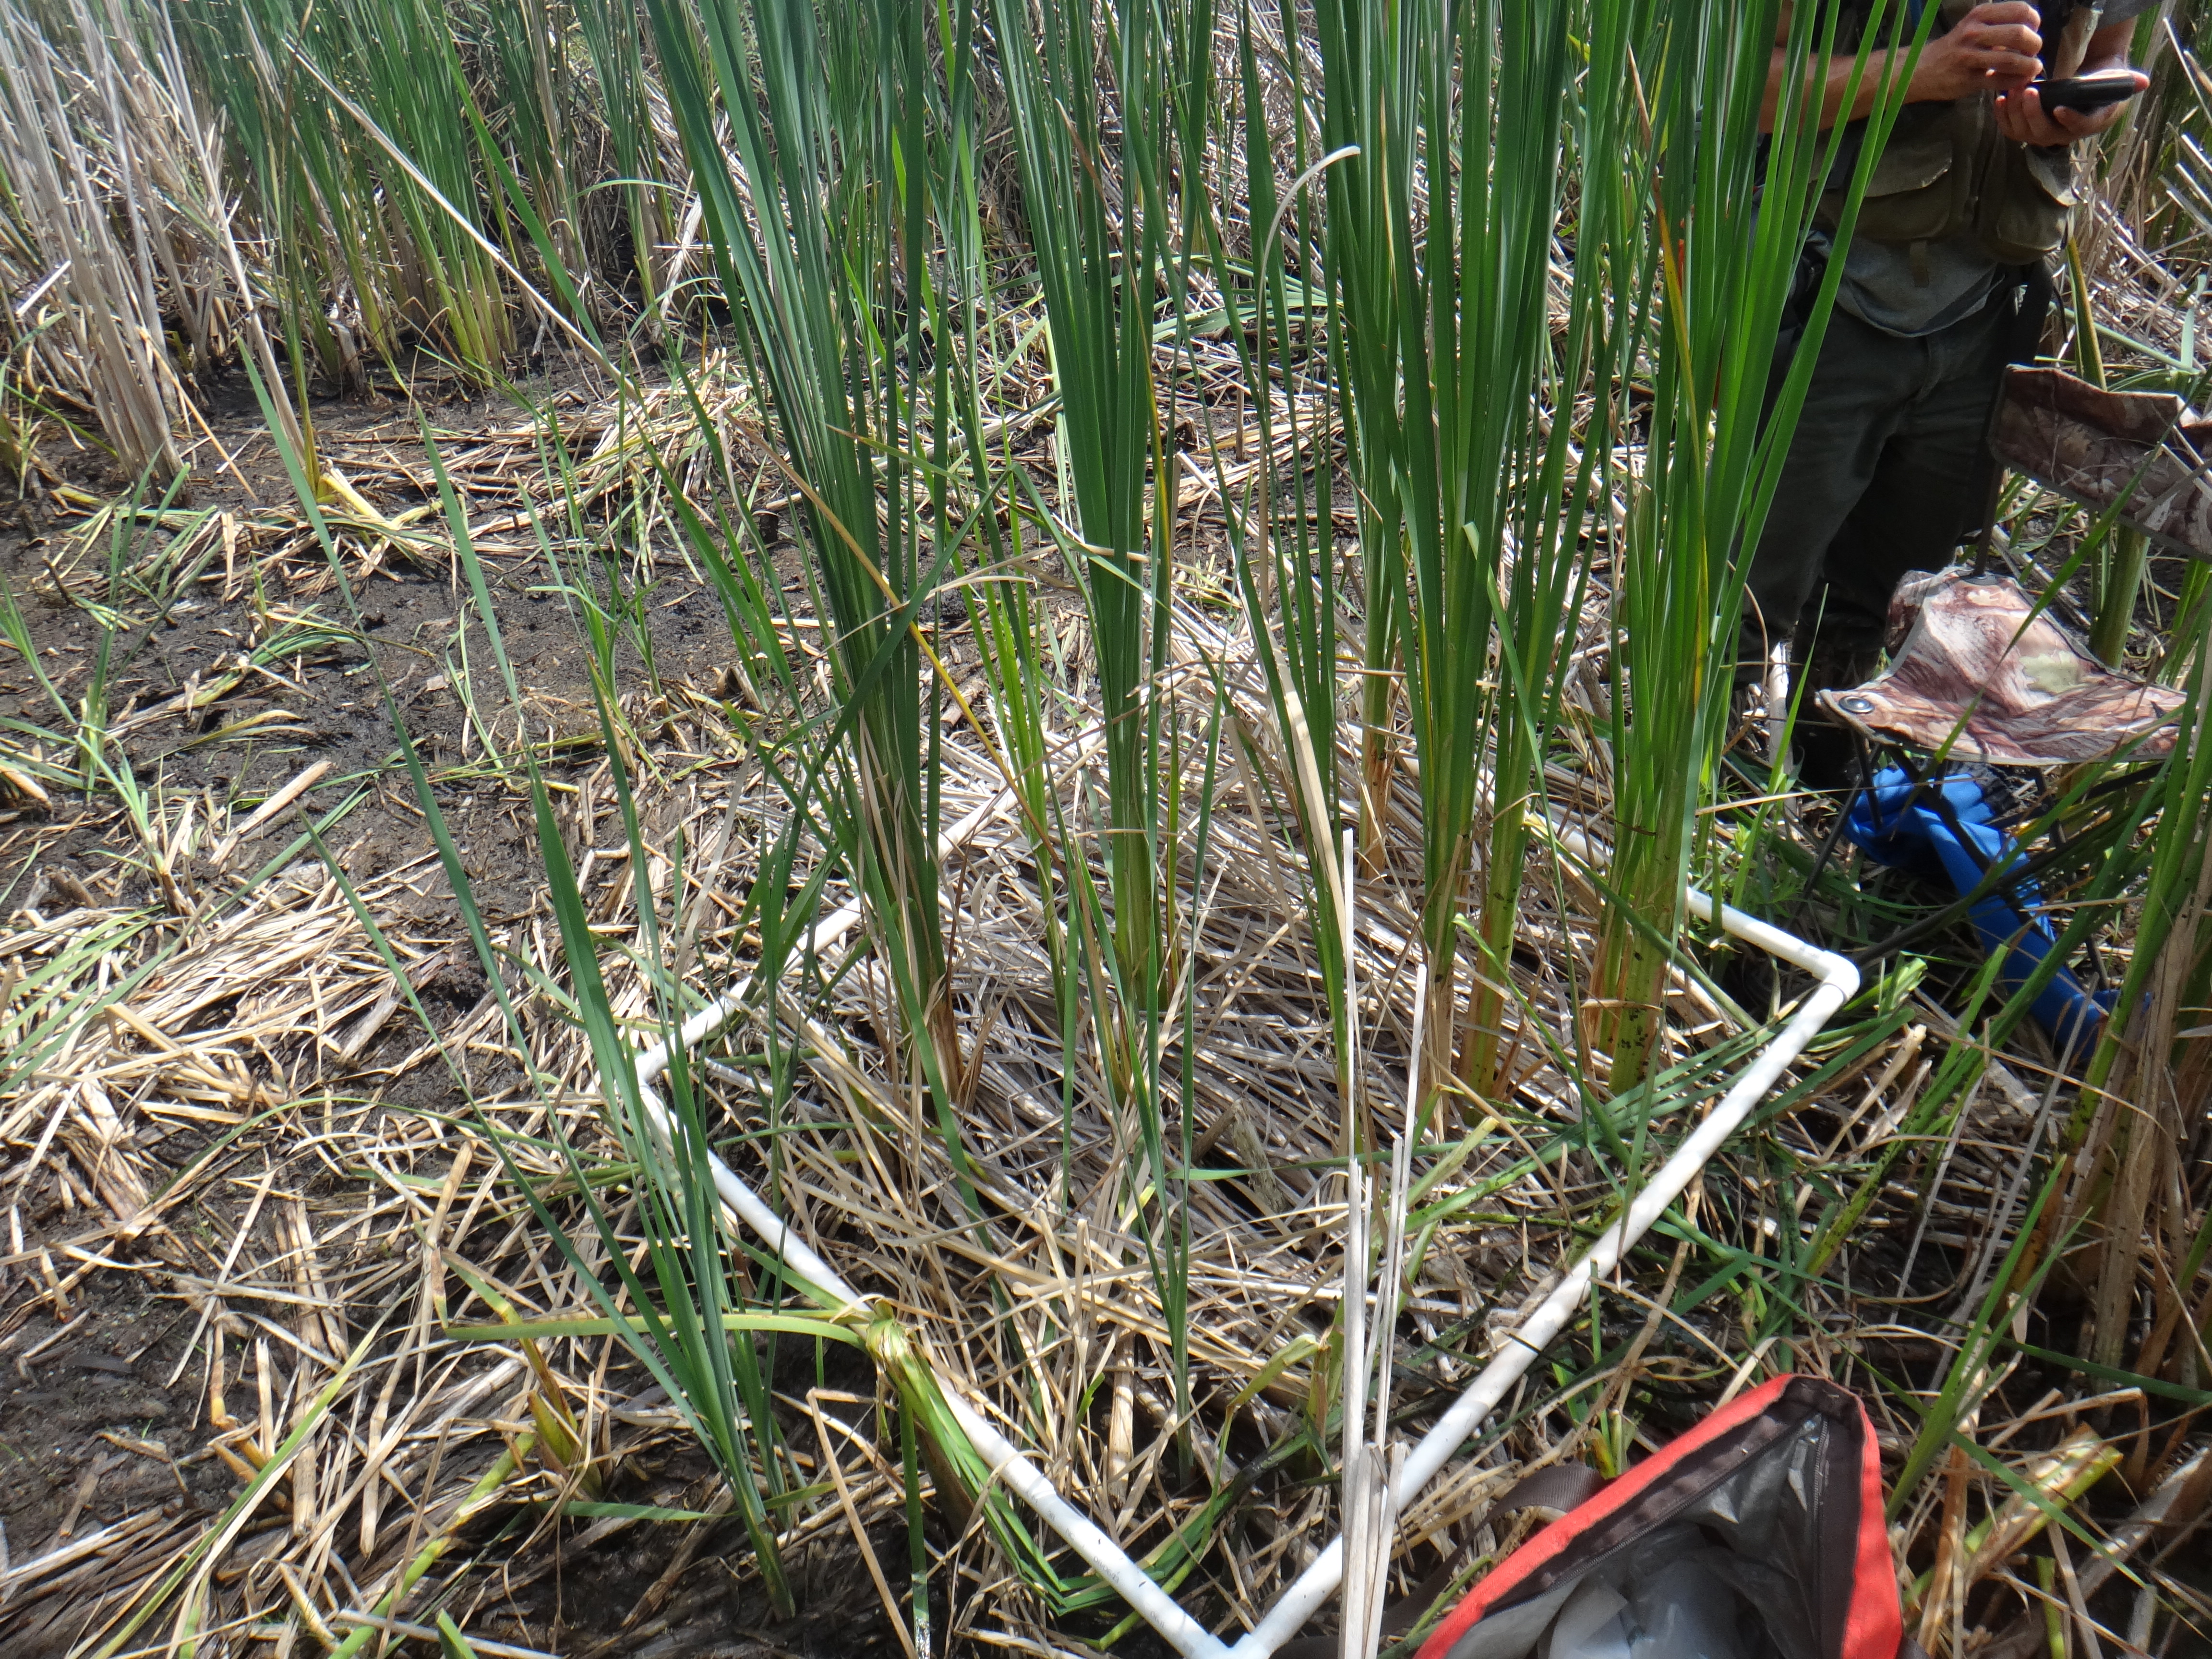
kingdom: Plantae
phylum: Tracheophyta
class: Magnoliopsida
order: Asterales
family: Asteraceae
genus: Bidens
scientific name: Bidens trichosperma
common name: Crowned beggarticks
